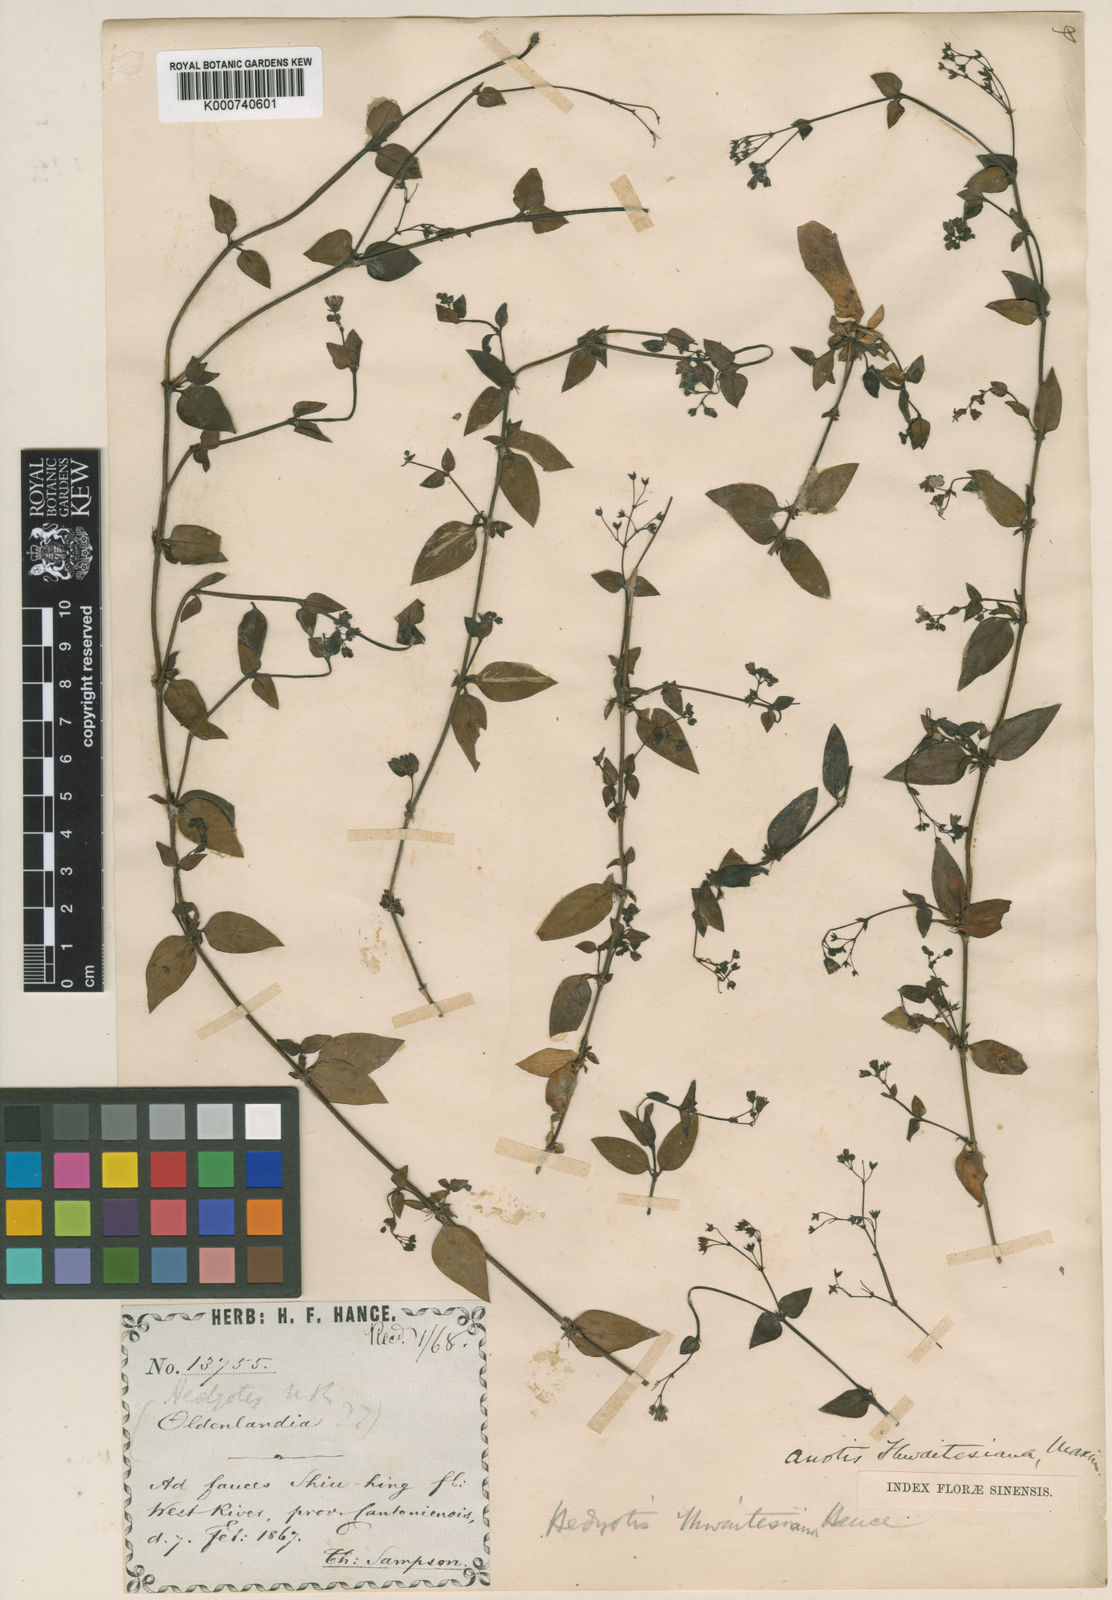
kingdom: Plantae
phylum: Tracheophyta
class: Magnoliopsida
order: Gentianales
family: Rubiaceae
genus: Neanotis
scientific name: Neanotis thwaitesiana
